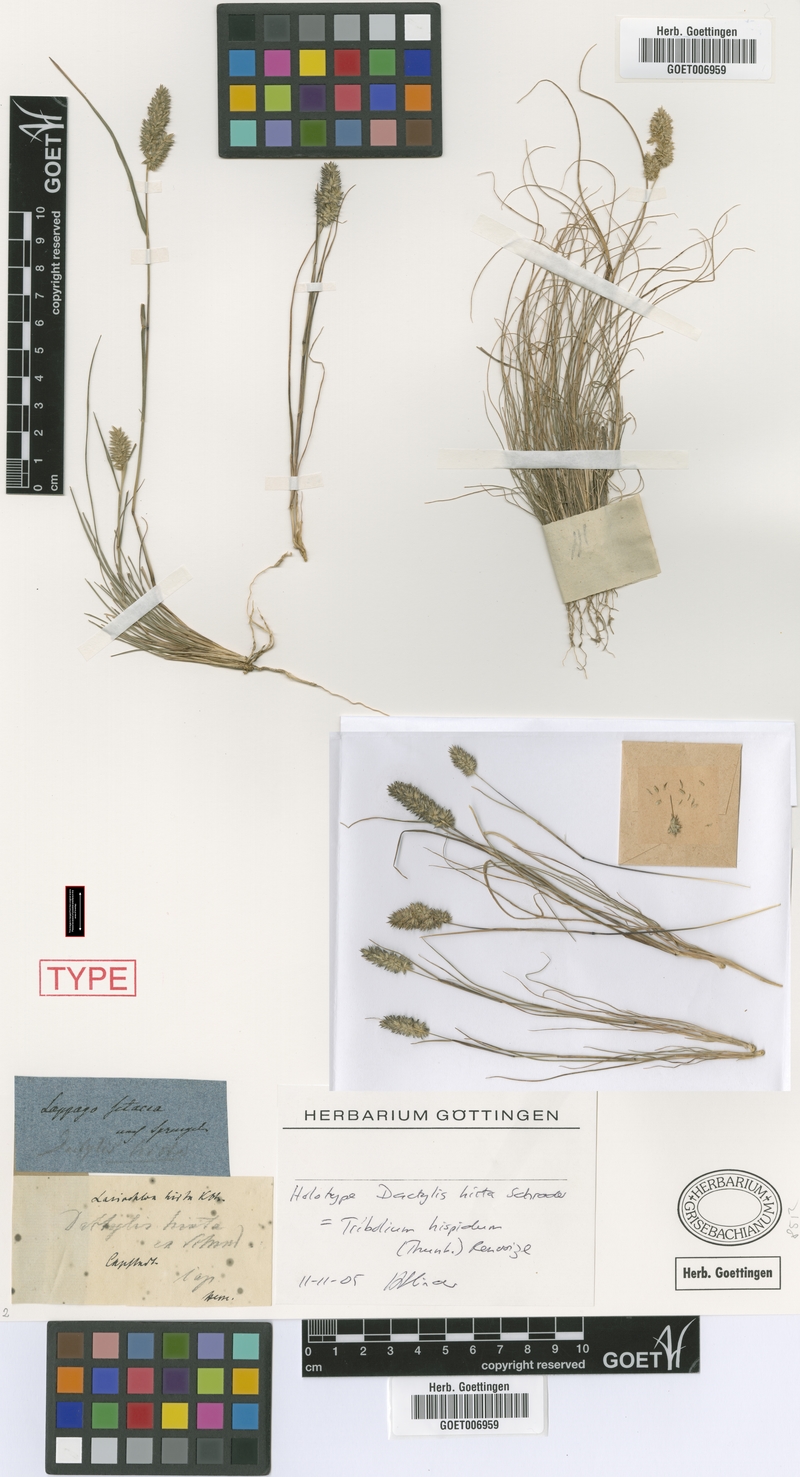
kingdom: Plantae
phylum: Tracheophyta
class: Liliopsida
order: Poales
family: Poaceae
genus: Tribolium
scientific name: Tribolium hispidum
